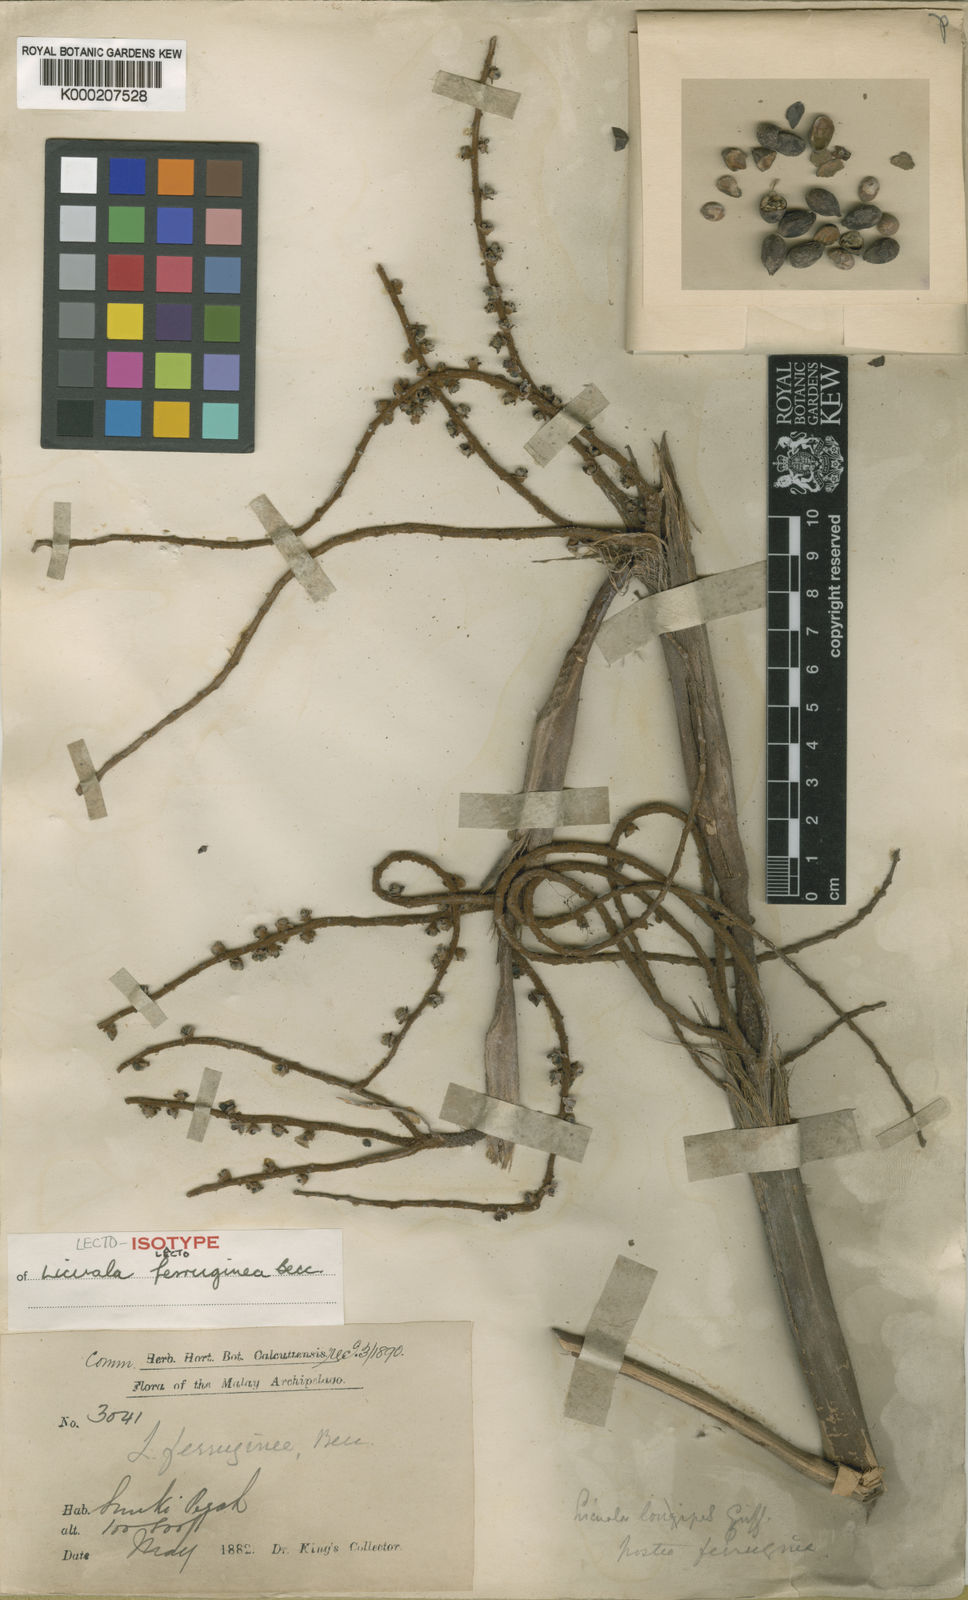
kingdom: Plantae
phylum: Tracheophyta
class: Liliopsida
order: Arecales
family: Arecaceae
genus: Licuala
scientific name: Licuala ferruginea
